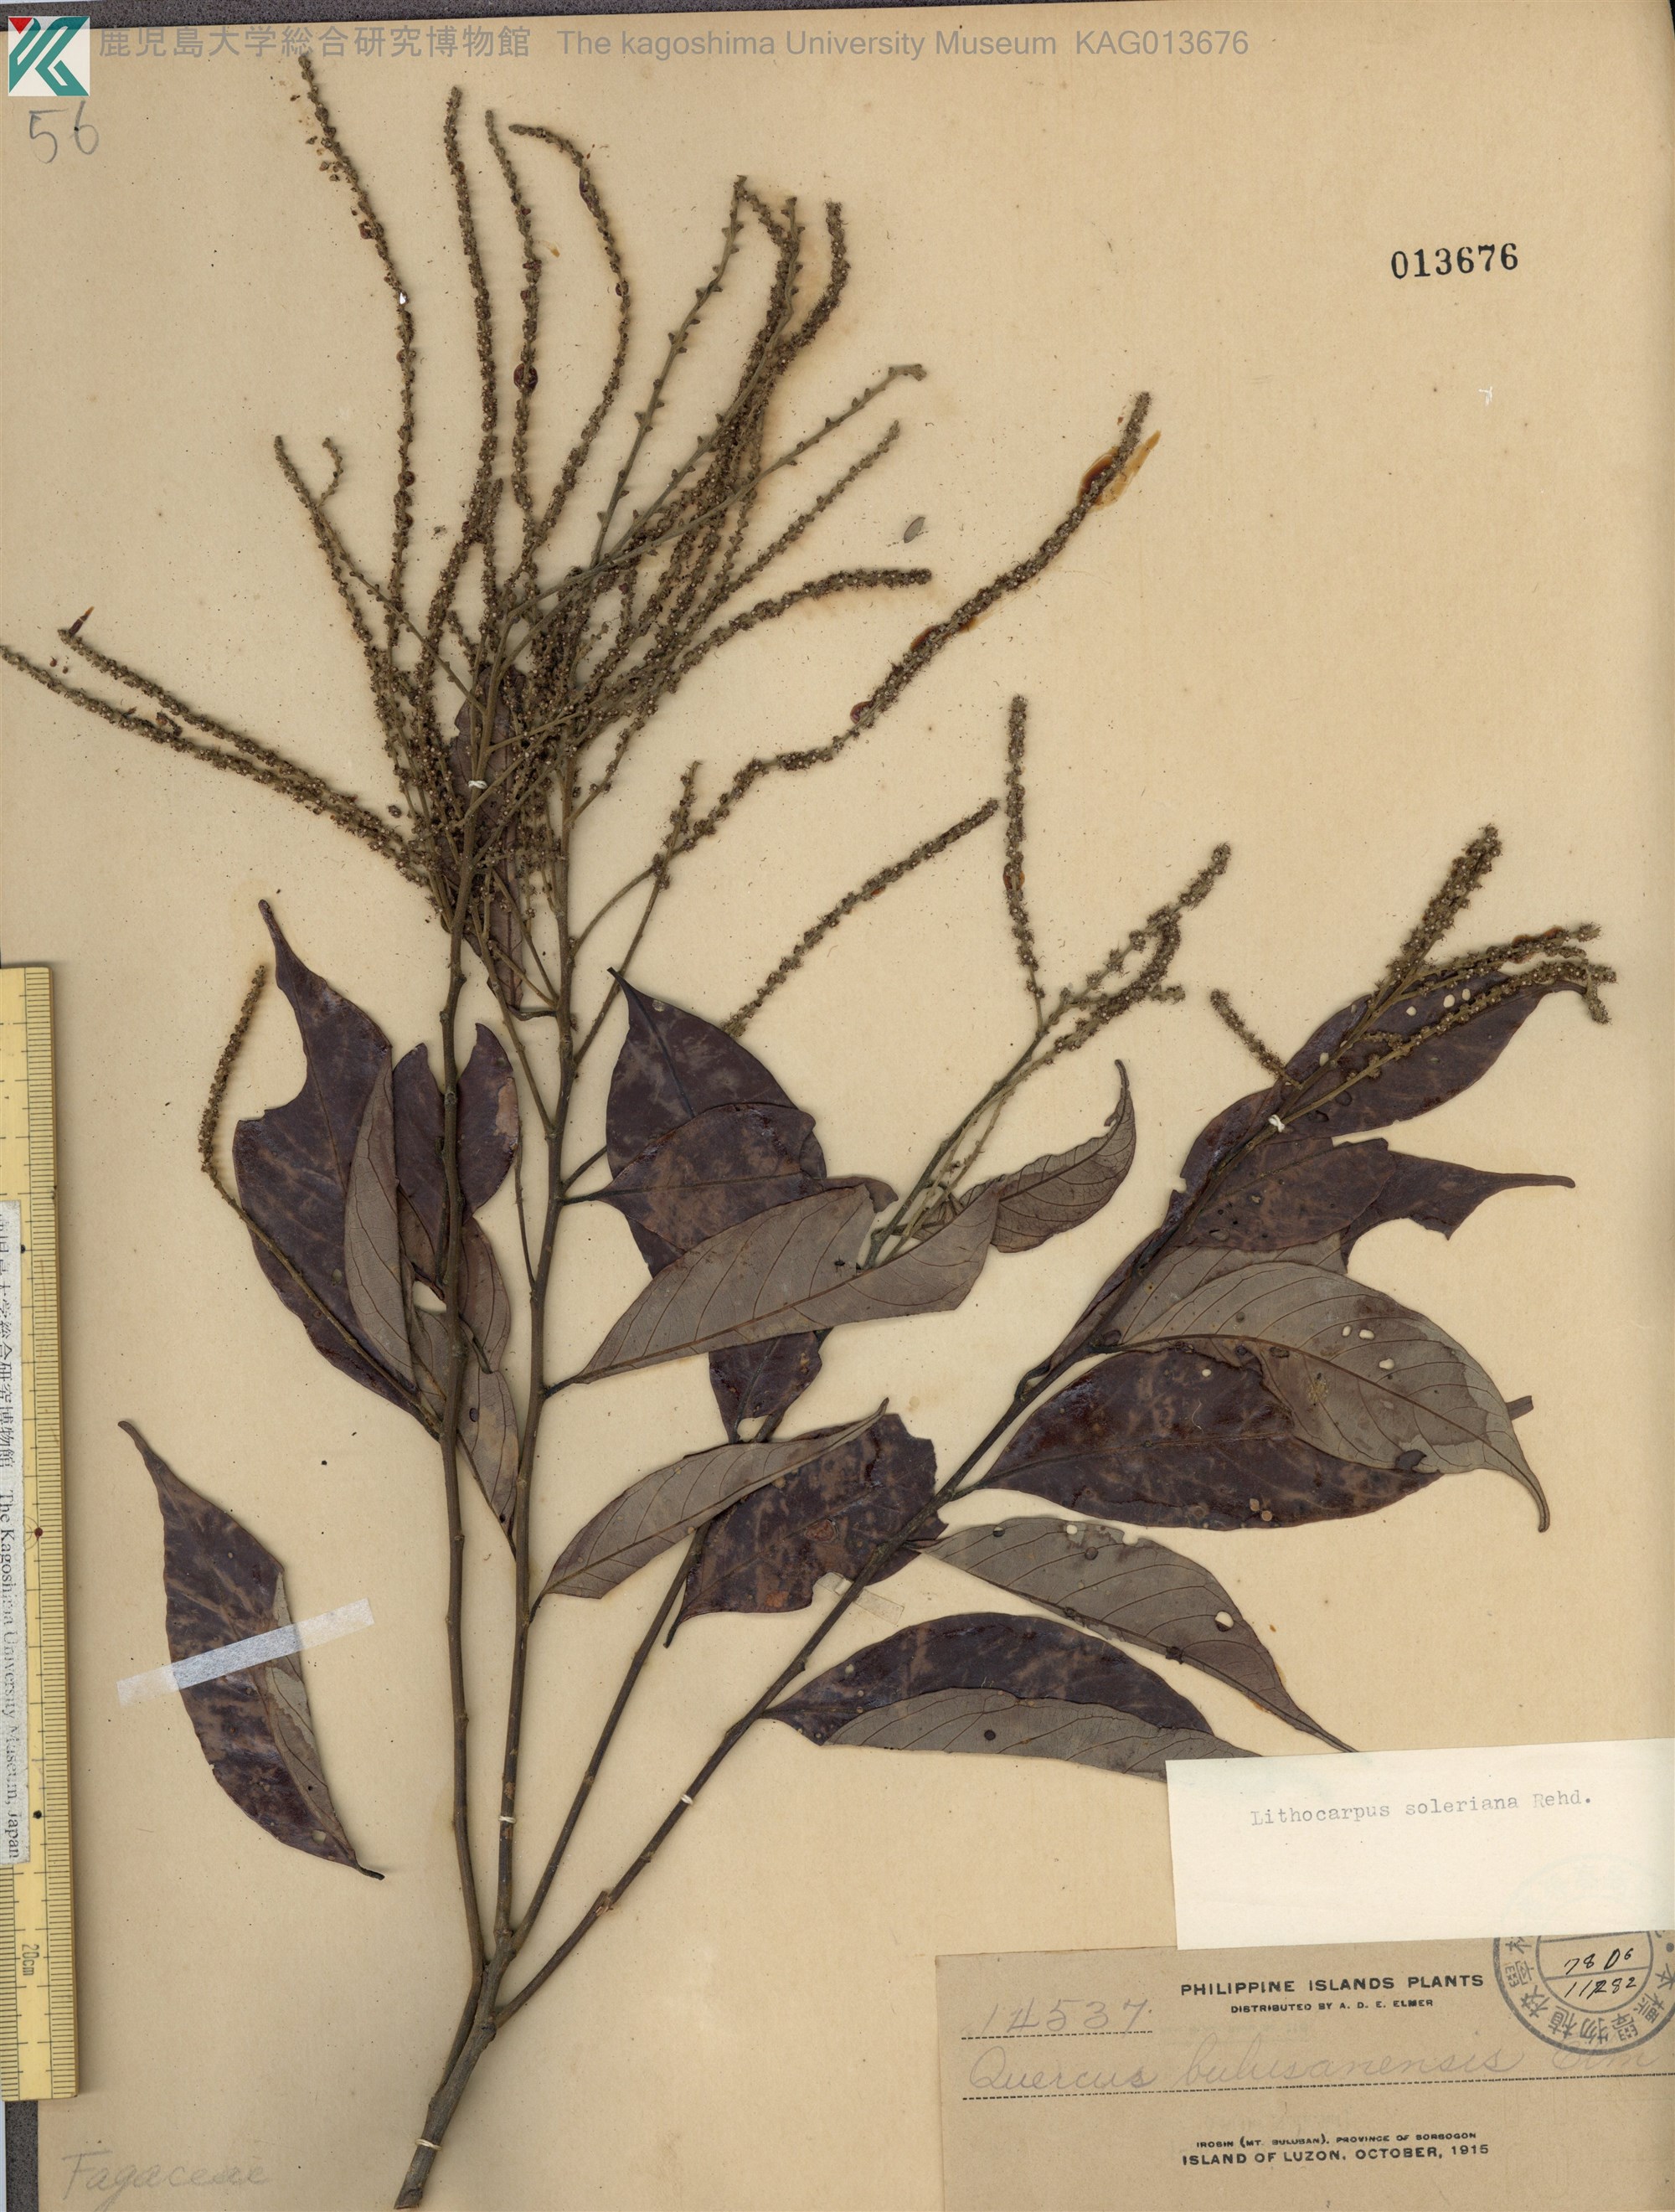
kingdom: Plantae
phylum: Tracheophyta
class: Magnoliopsida
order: Fagales
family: Fagaceae
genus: Lithocarpus
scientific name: Lithocarpus solerianus
